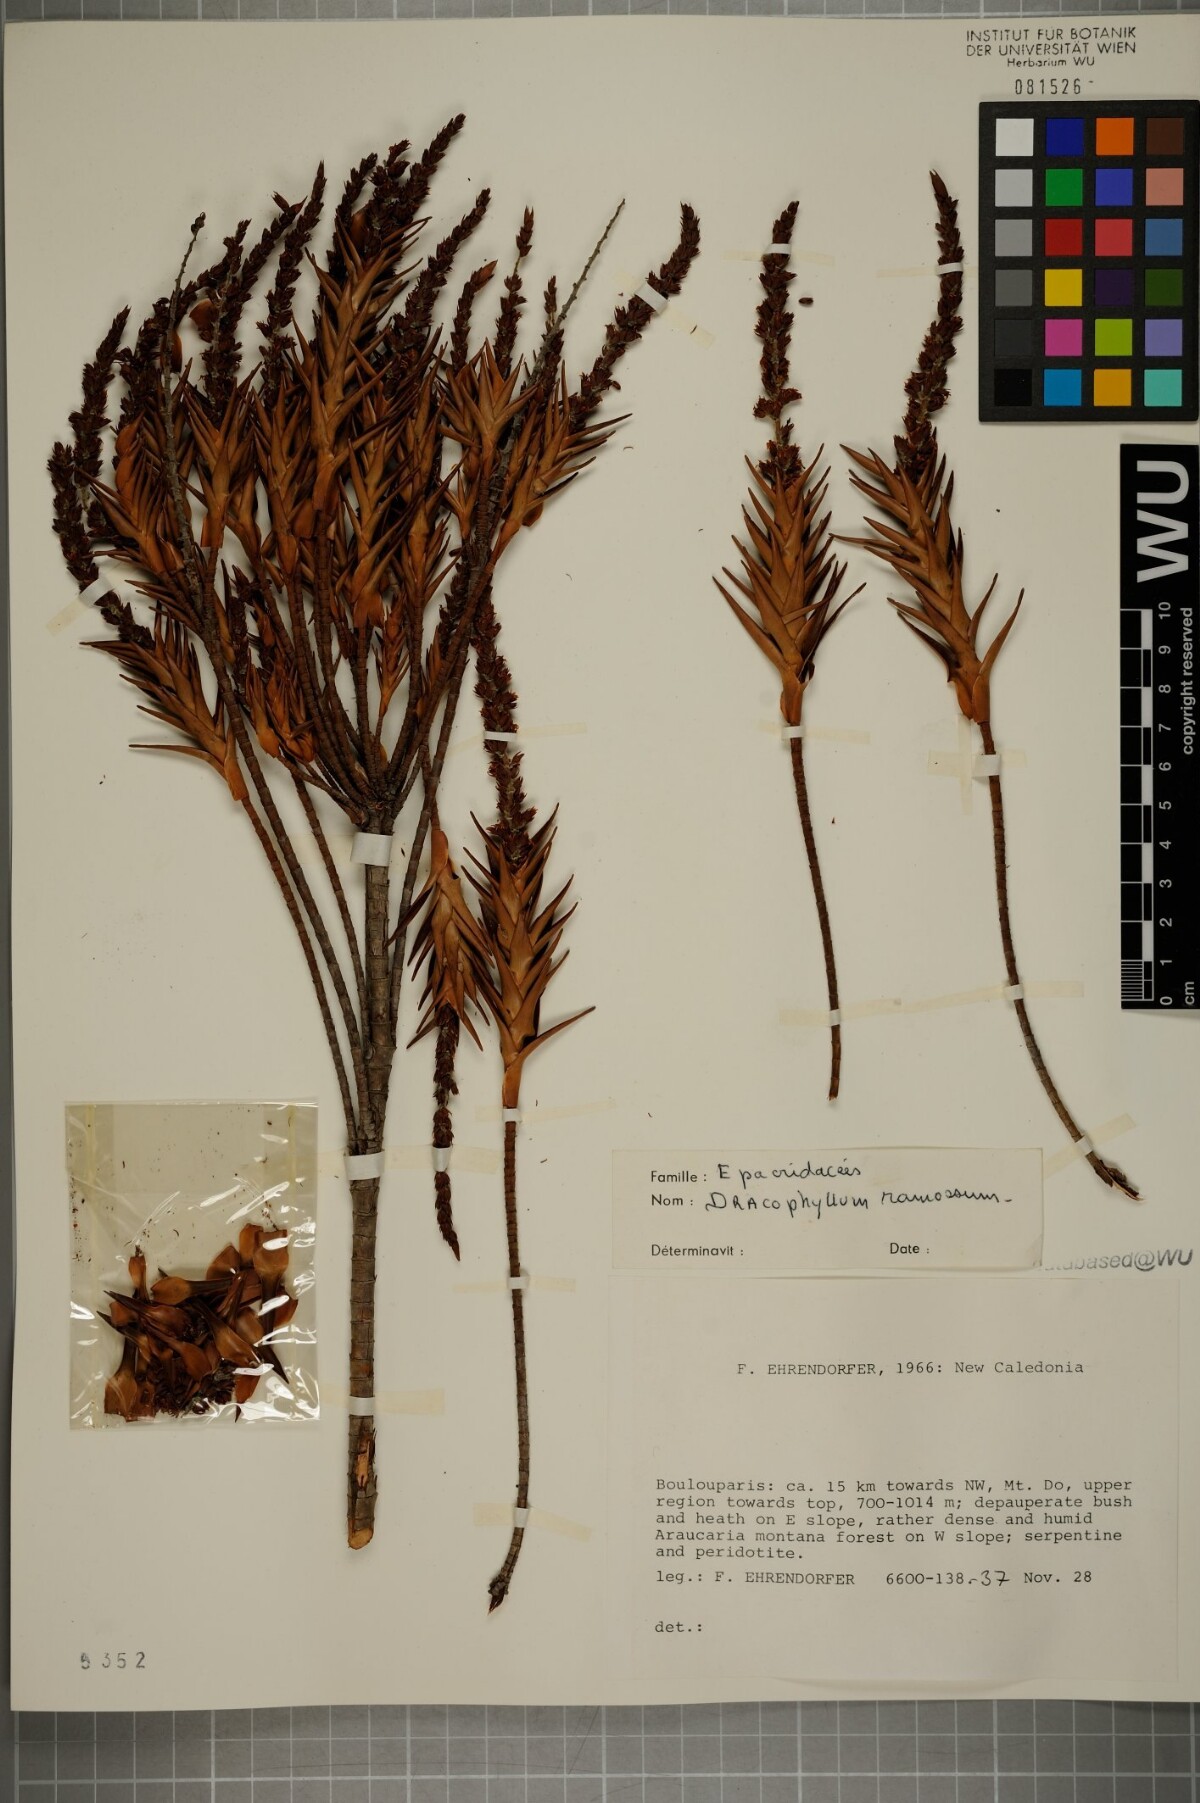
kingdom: Plantae
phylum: Tracheophyta
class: Magnoliopsida
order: Ericales
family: Ericaceae
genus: Dracophyllum
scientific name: Dracophyllum ramosum
